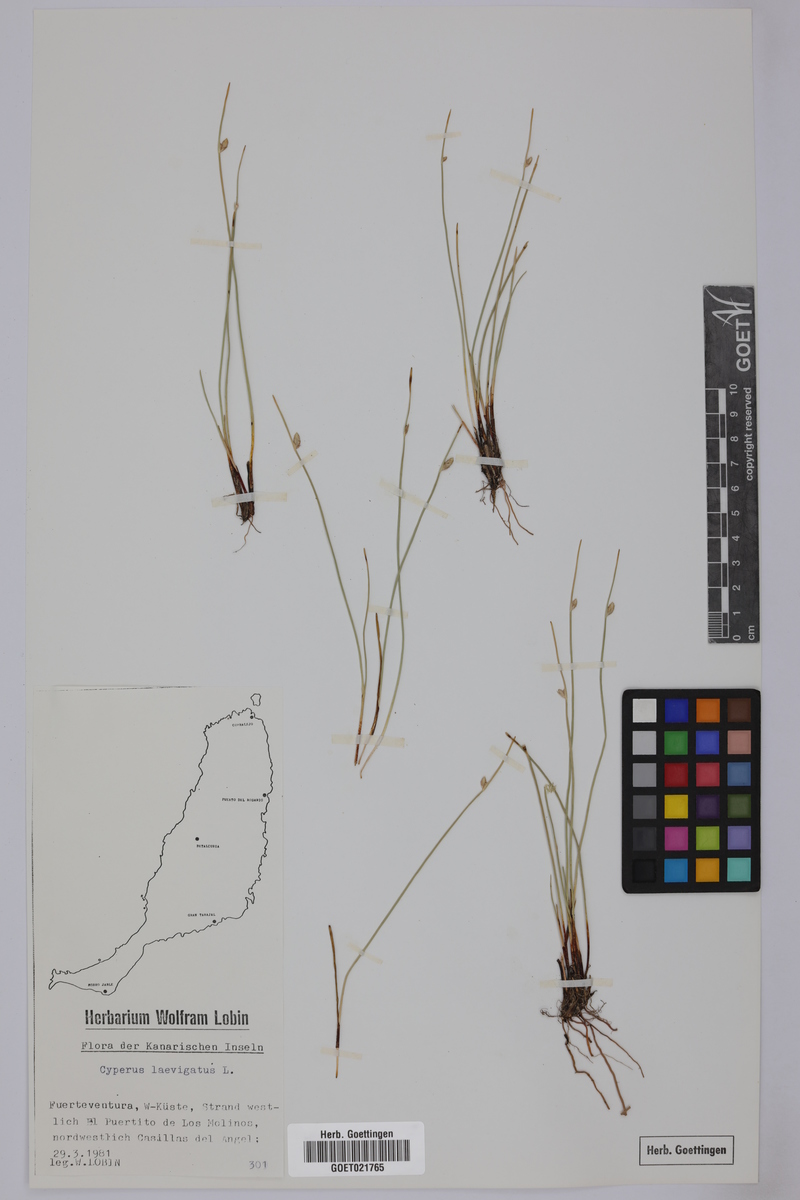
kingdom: Plantae
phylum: Tracheophyta
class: Liliopsida
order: Poales
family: Cyperaceae
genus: Cyperus
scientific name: Cyperus laevigatus
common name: Smooth flat sedge
